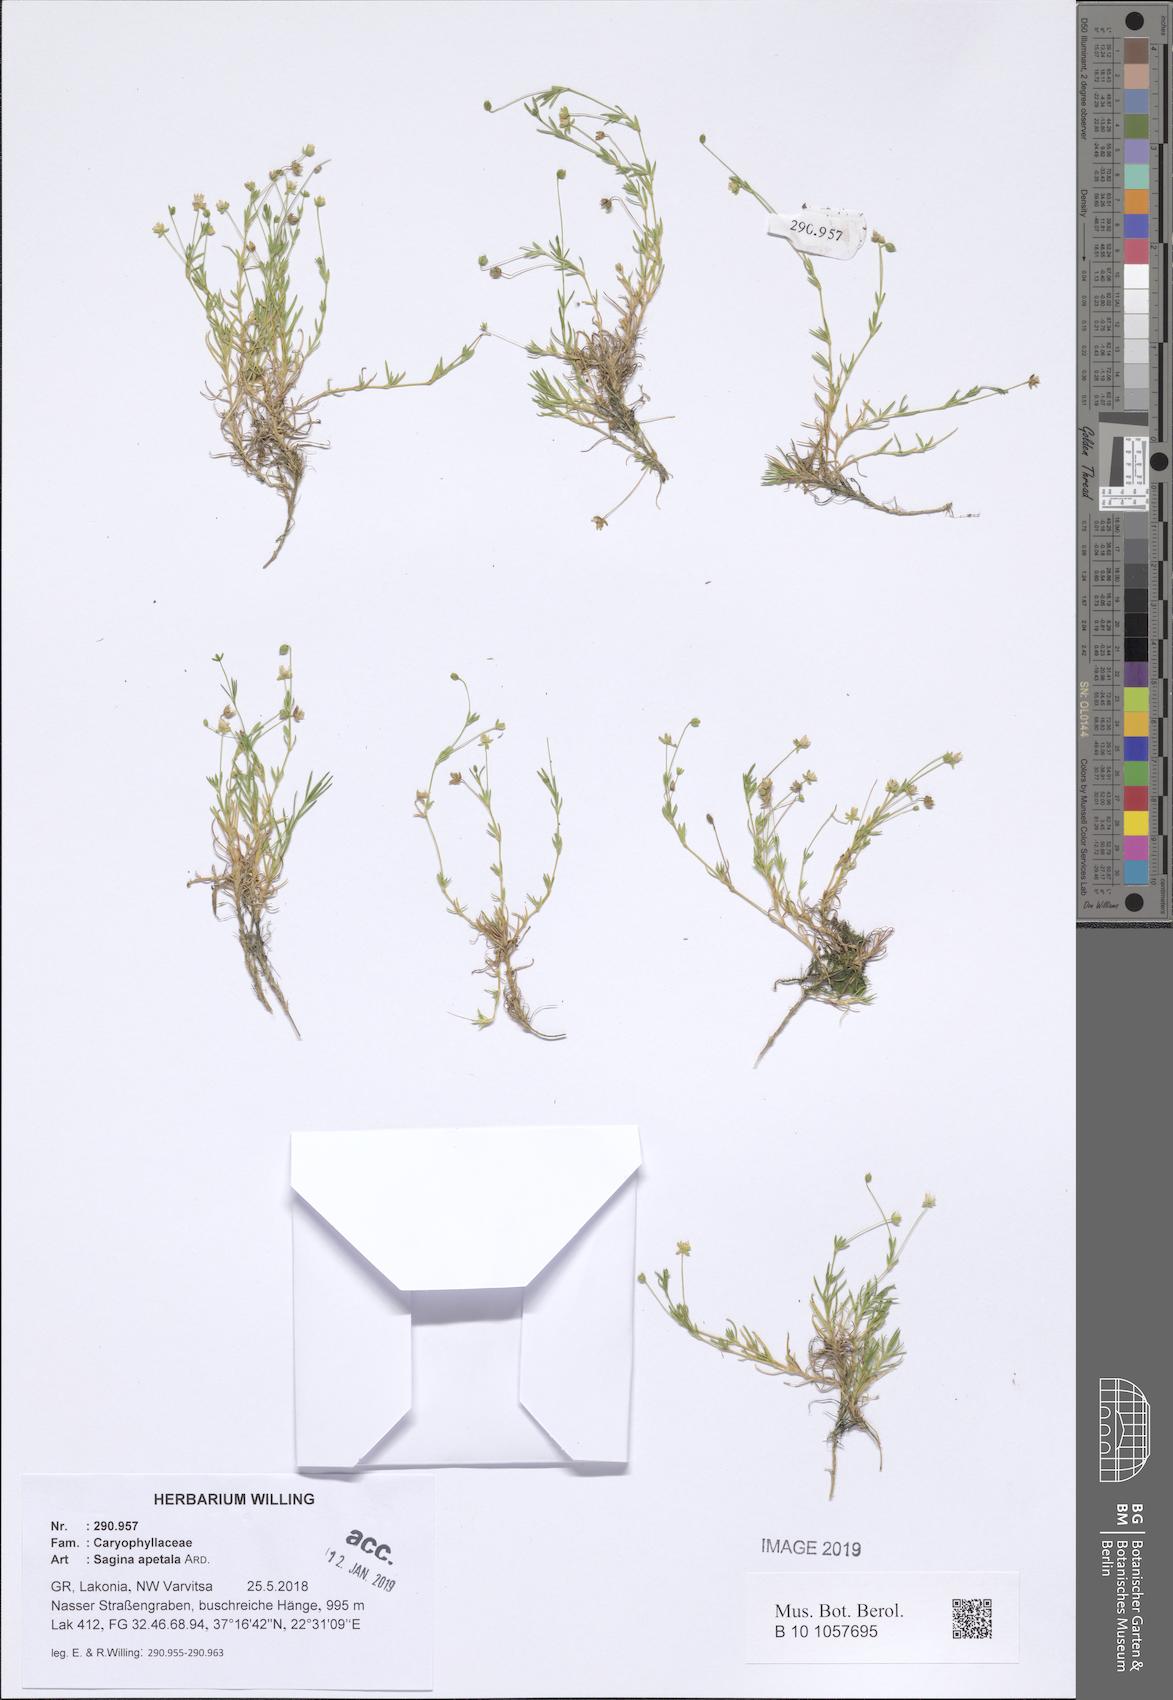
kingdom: Plantae
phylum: Tracheophyta
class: Magnoliopsida
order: Caryophyllales
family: Caryophyllaceae
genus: Sagina
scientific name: Sagina apetala
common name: Annual pearlwort
